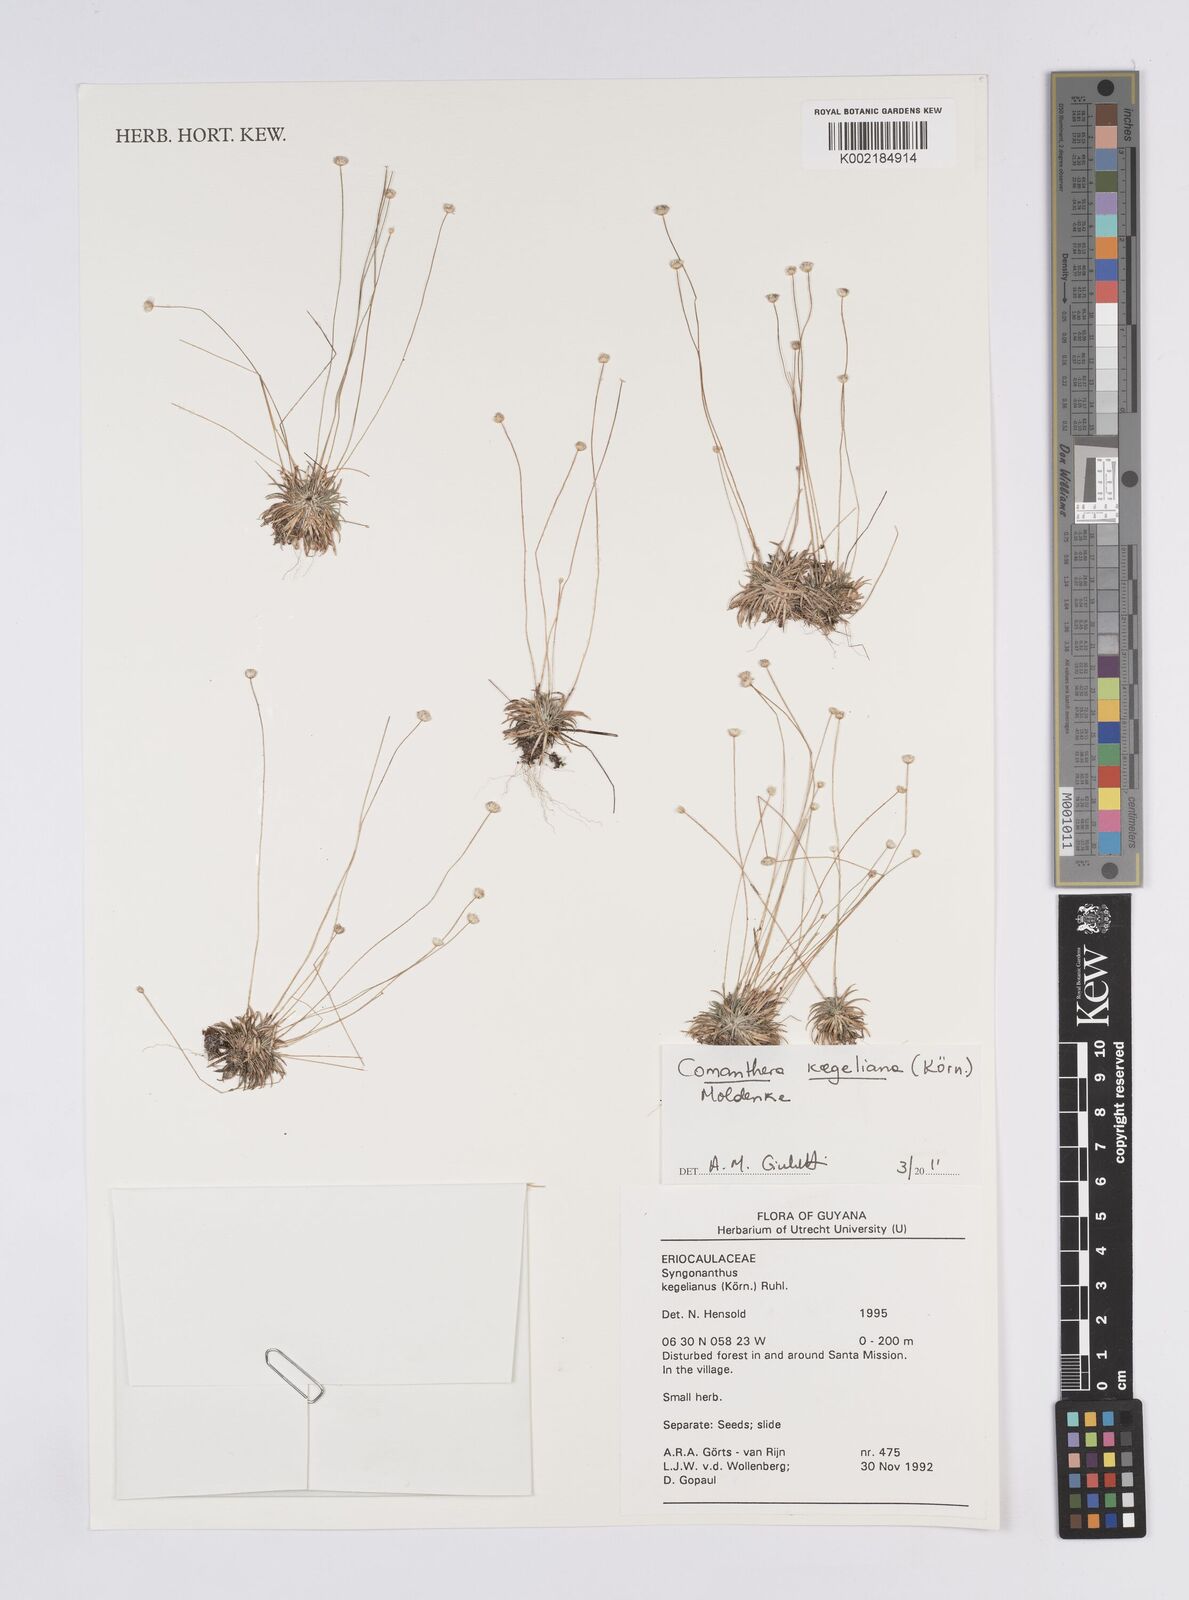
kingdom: Plantae
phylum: Tracheophyta
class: Liliopsida
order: Poales
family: Eriocaulaceae
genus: Comanthera
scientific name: Comanthera kegeliana
